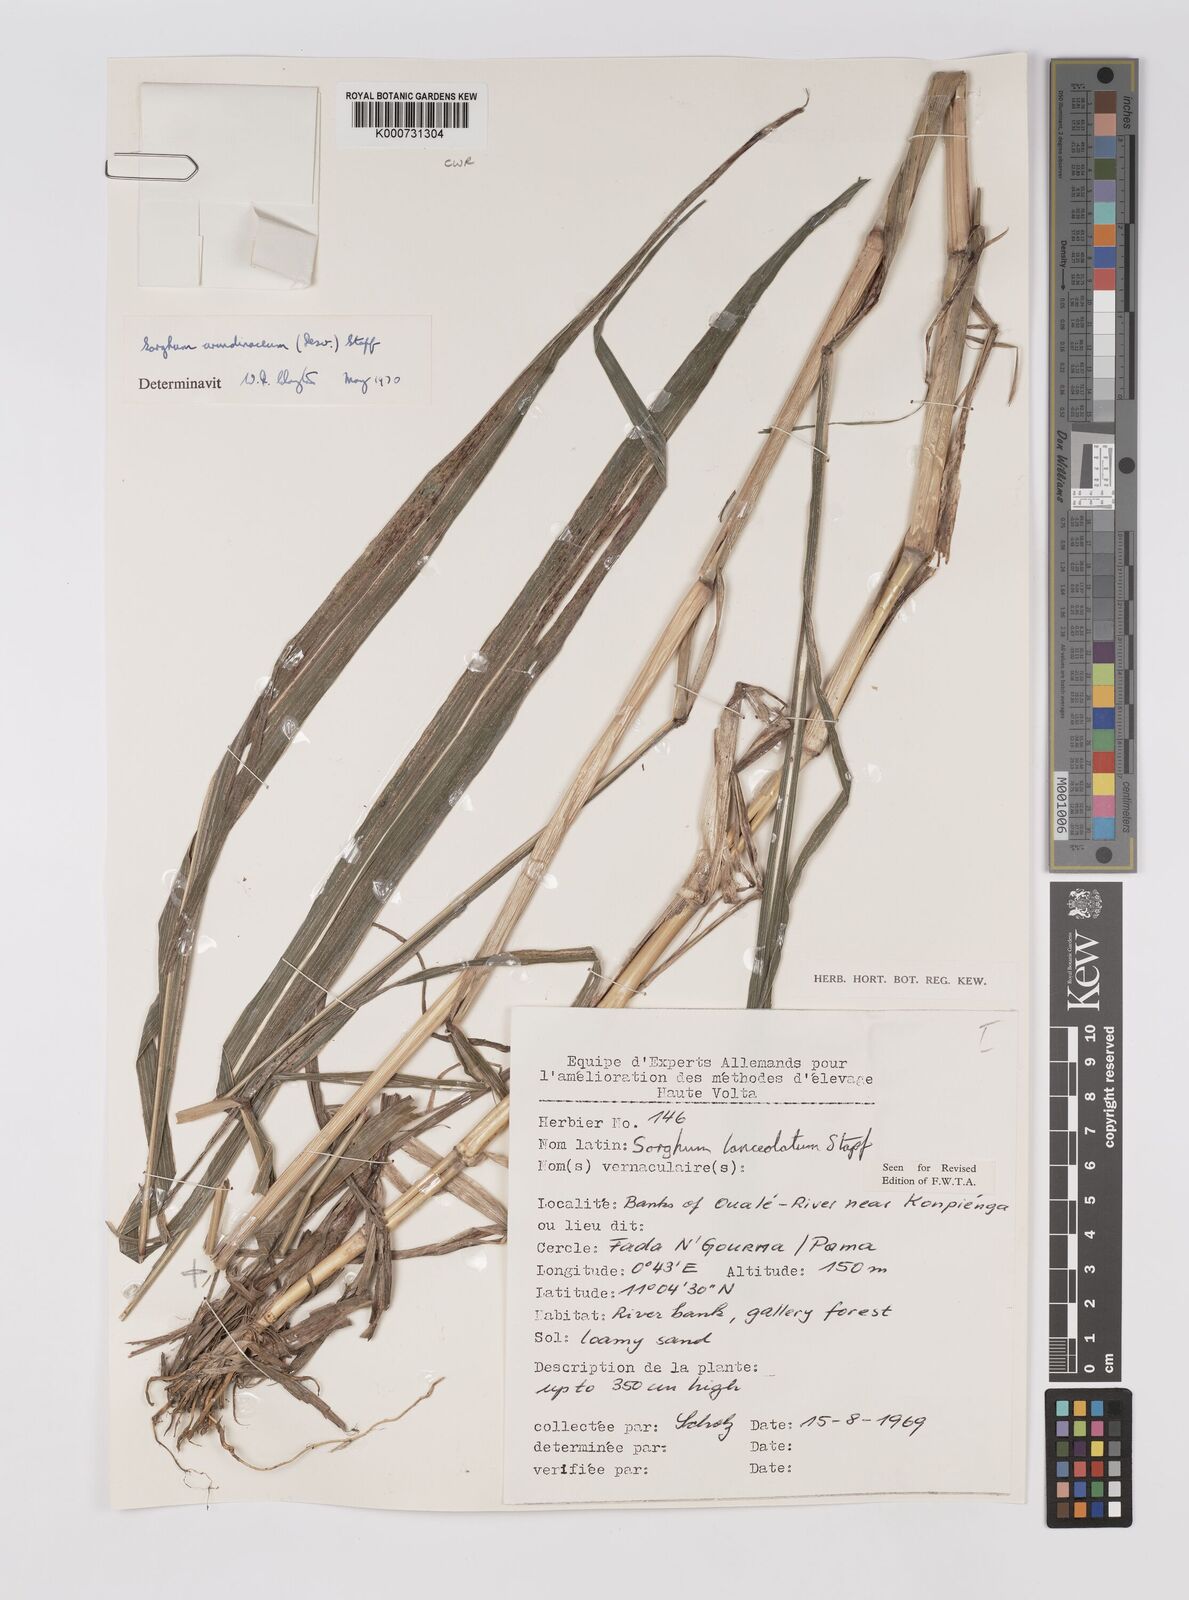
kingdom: Plantae
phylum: Tracheophyta
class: Liliopsida
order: Poales
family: Poaceae
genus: Sorghum
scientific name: Sorghum arundinaceum
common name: Sorghum
